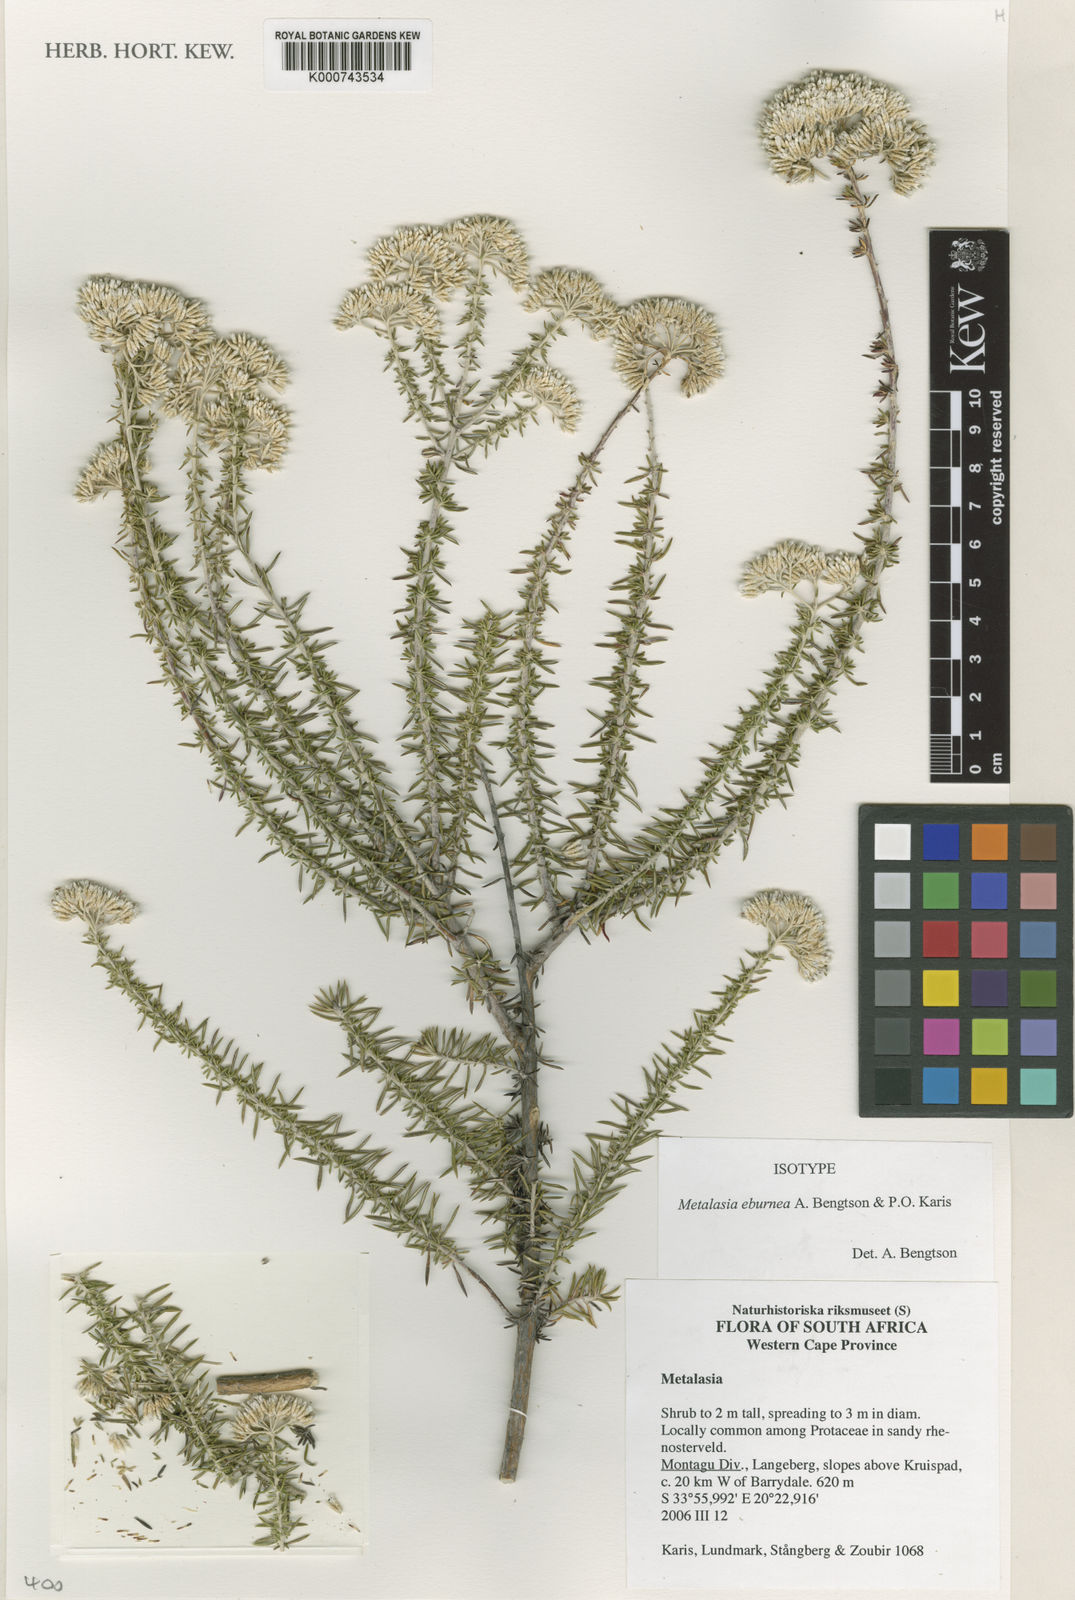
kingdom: Plantae
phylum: Tracheophyta
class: Magnoliopsida
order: Asterales
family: Asteraceae
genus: Metalasia
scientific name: Metalasia eburnea
